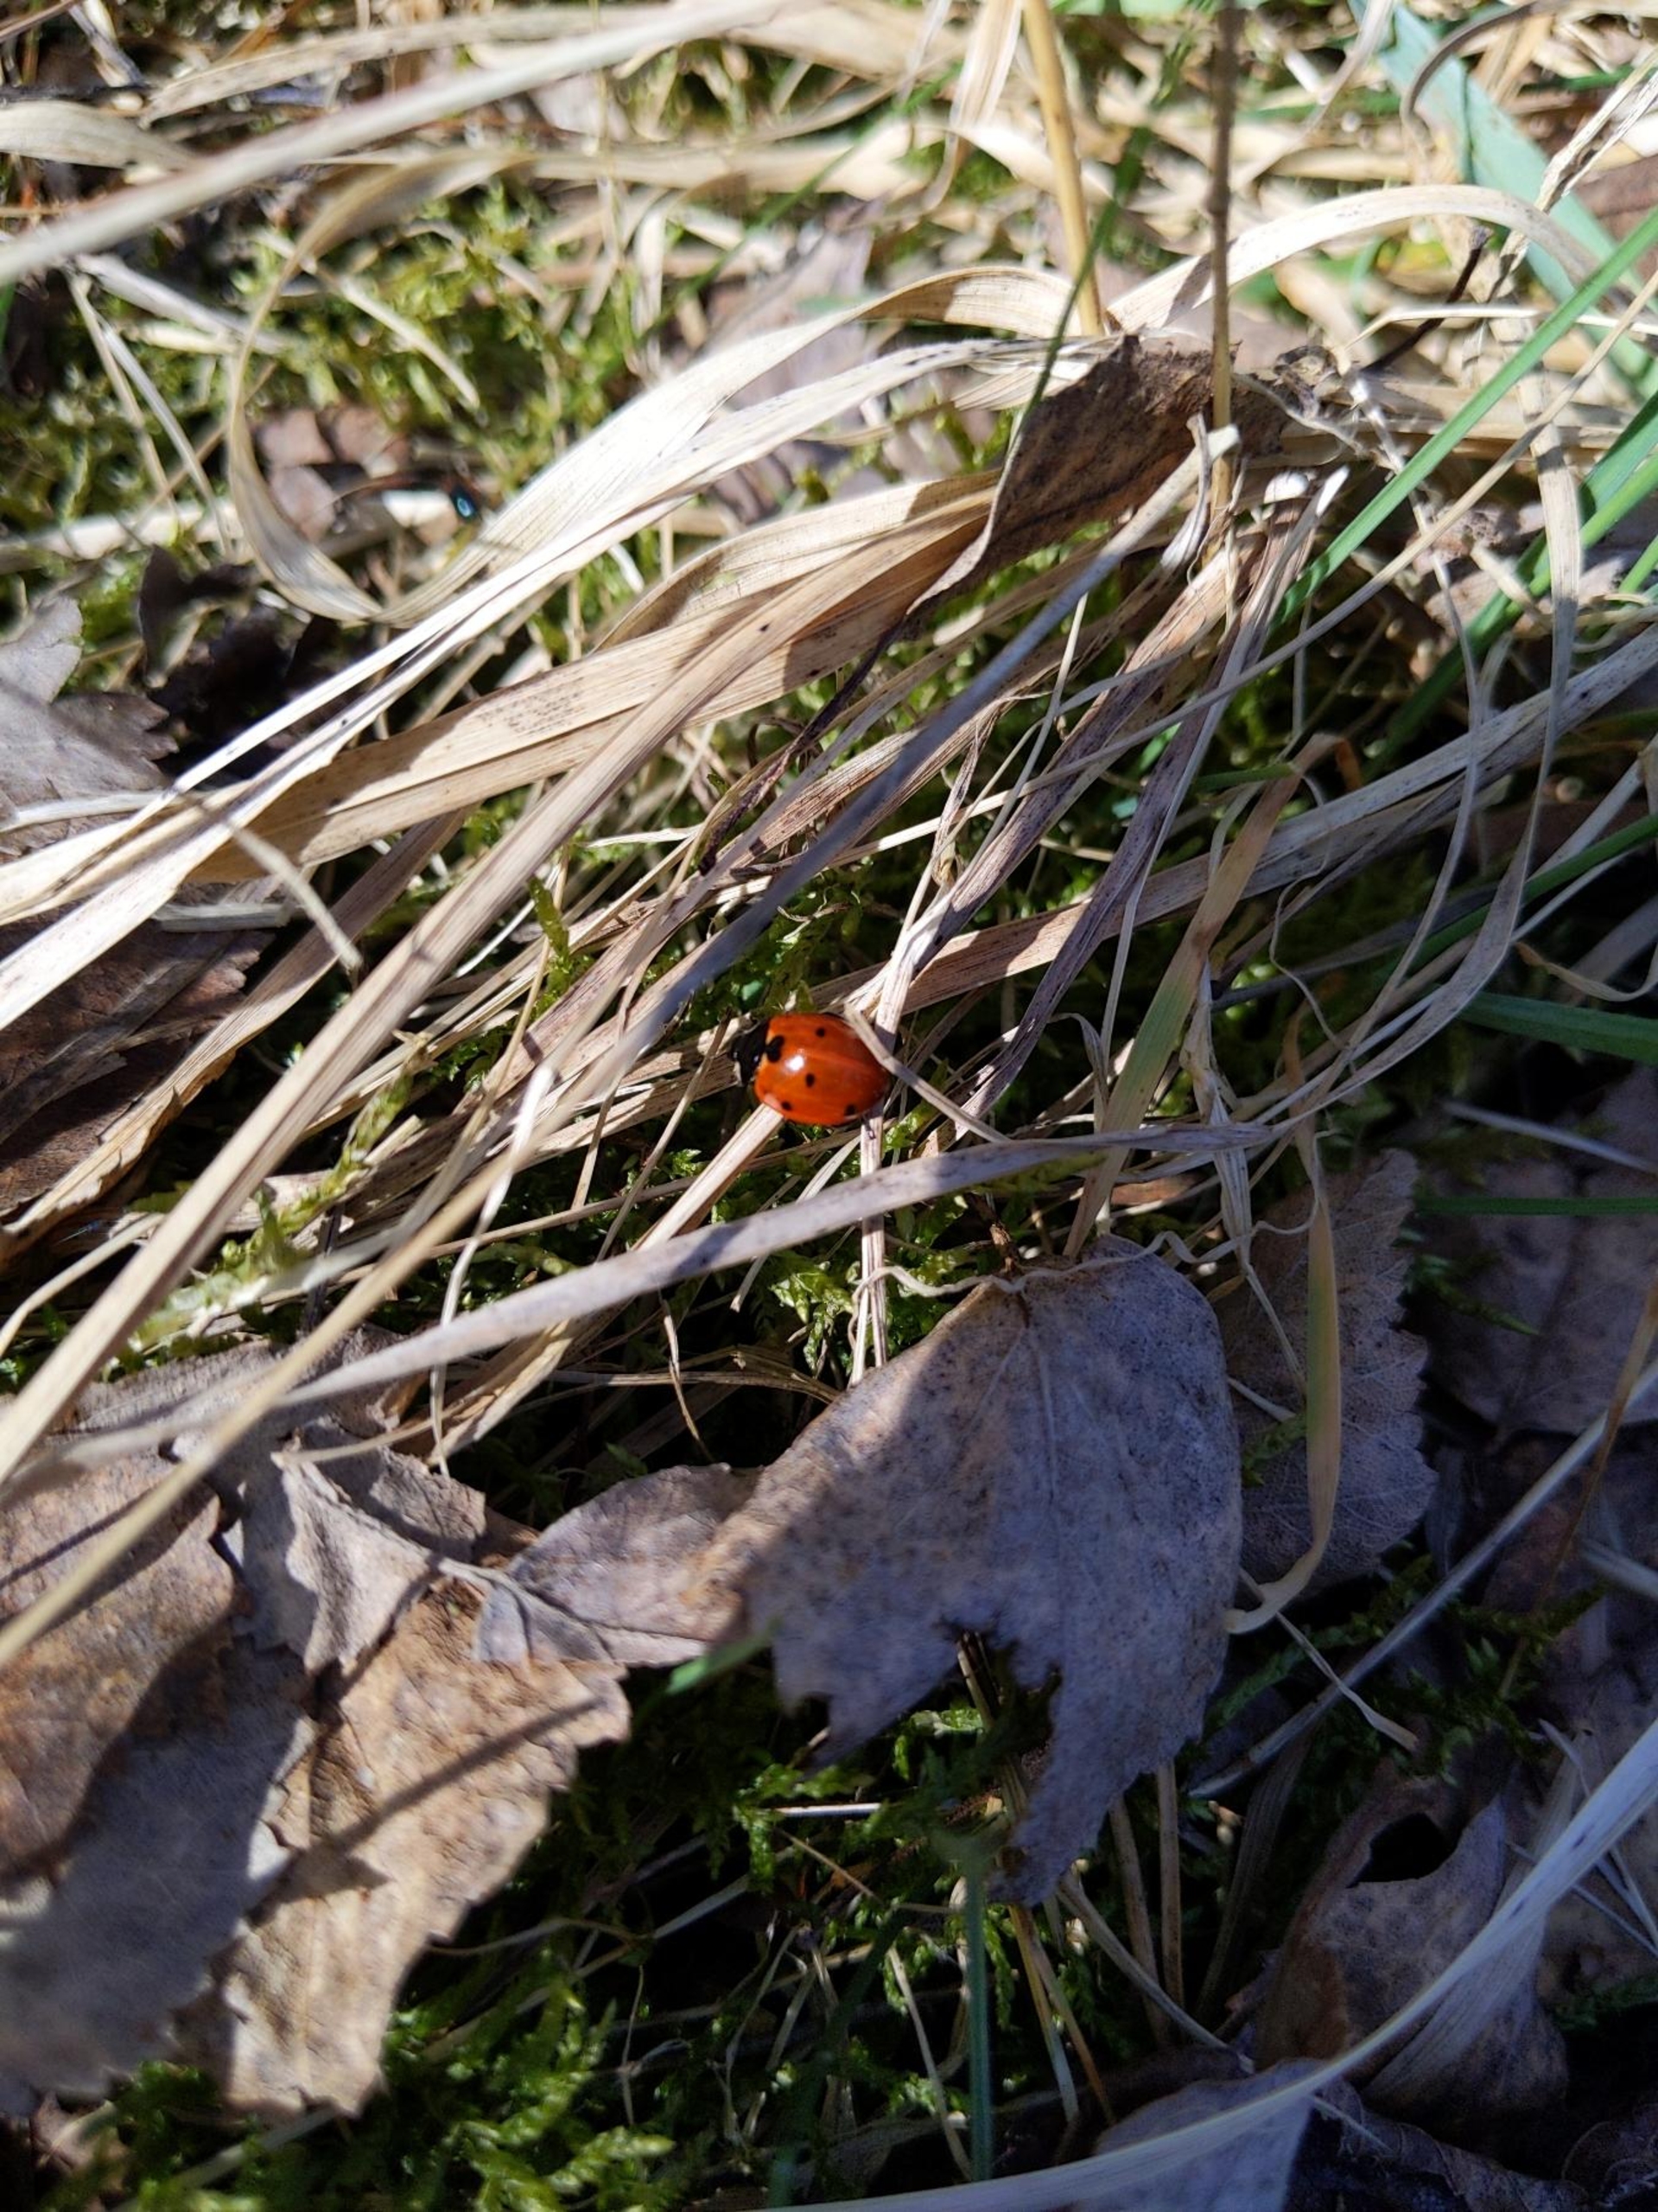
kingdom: Animalia
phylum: Arthropoda
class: Insecta
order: Coleoptera
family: Coccinellidae
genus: Coccinella
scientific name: Coccinella septempunctata
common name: Syvplettet mariehøne
